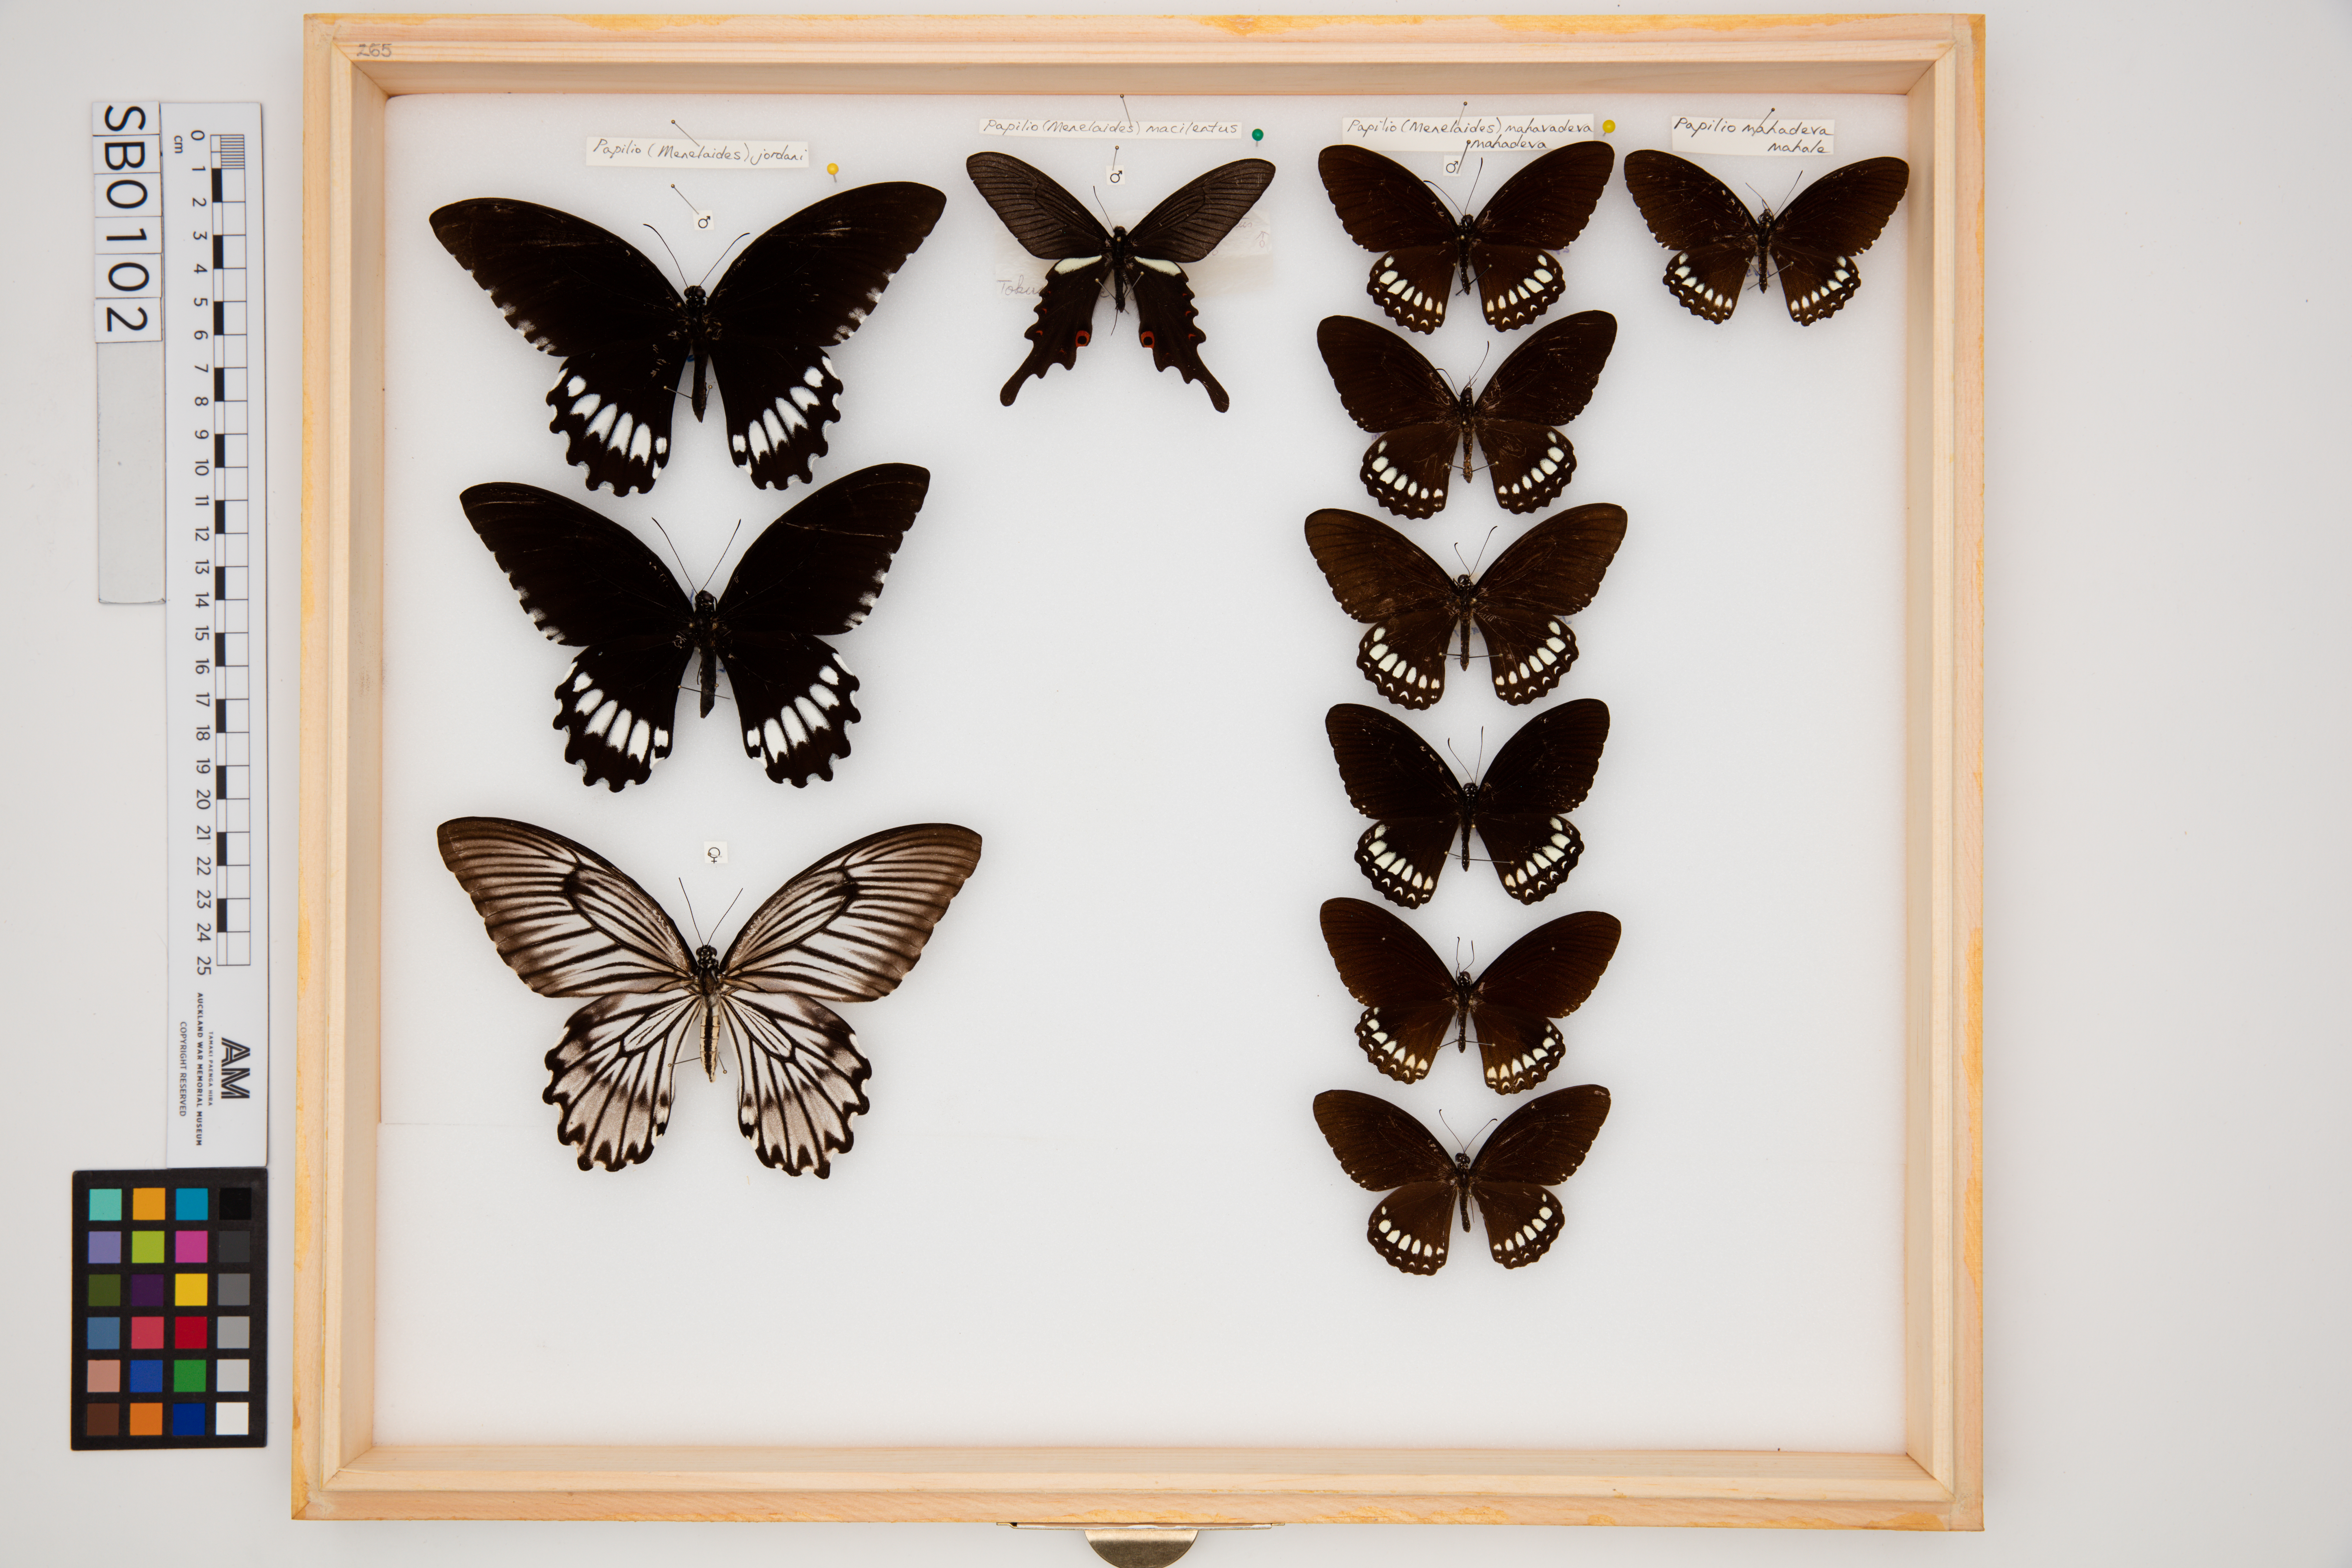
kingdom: Animalia
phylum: Arthropoda
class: Insecta
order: Lepidoptera
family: Papilionidae
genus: Papilio
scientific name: Papilio mahadeva
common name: Burmese raven
